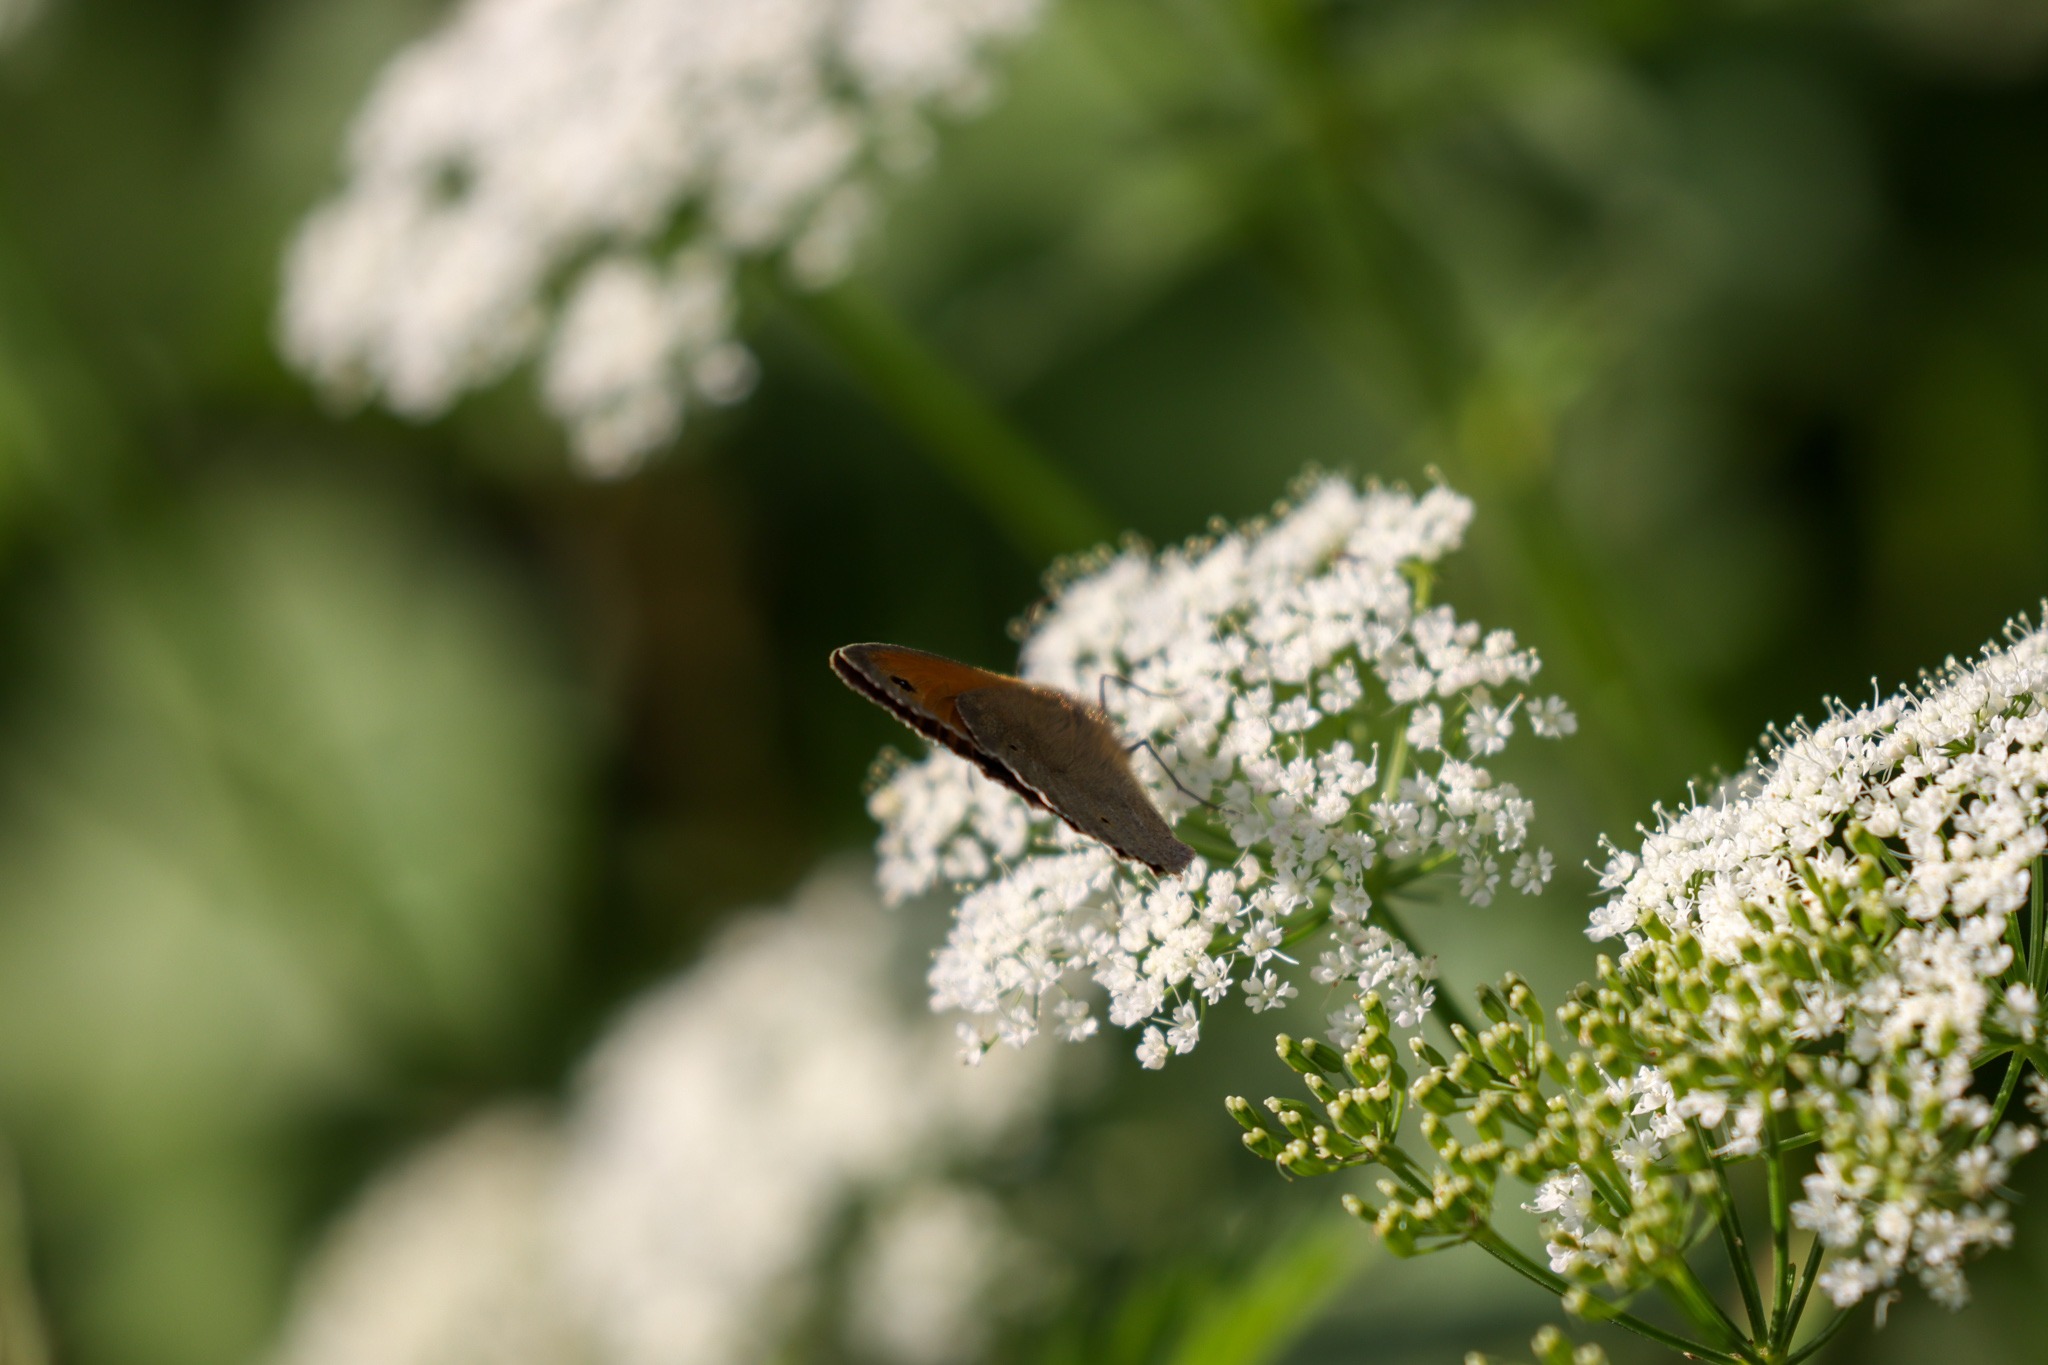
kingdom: Animalia
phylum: Arthropoda
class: Insecta
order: Lepidoptera
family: Nymphalidae
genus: Maniola
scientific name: Maniola jurtina
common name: Græsrandøje
